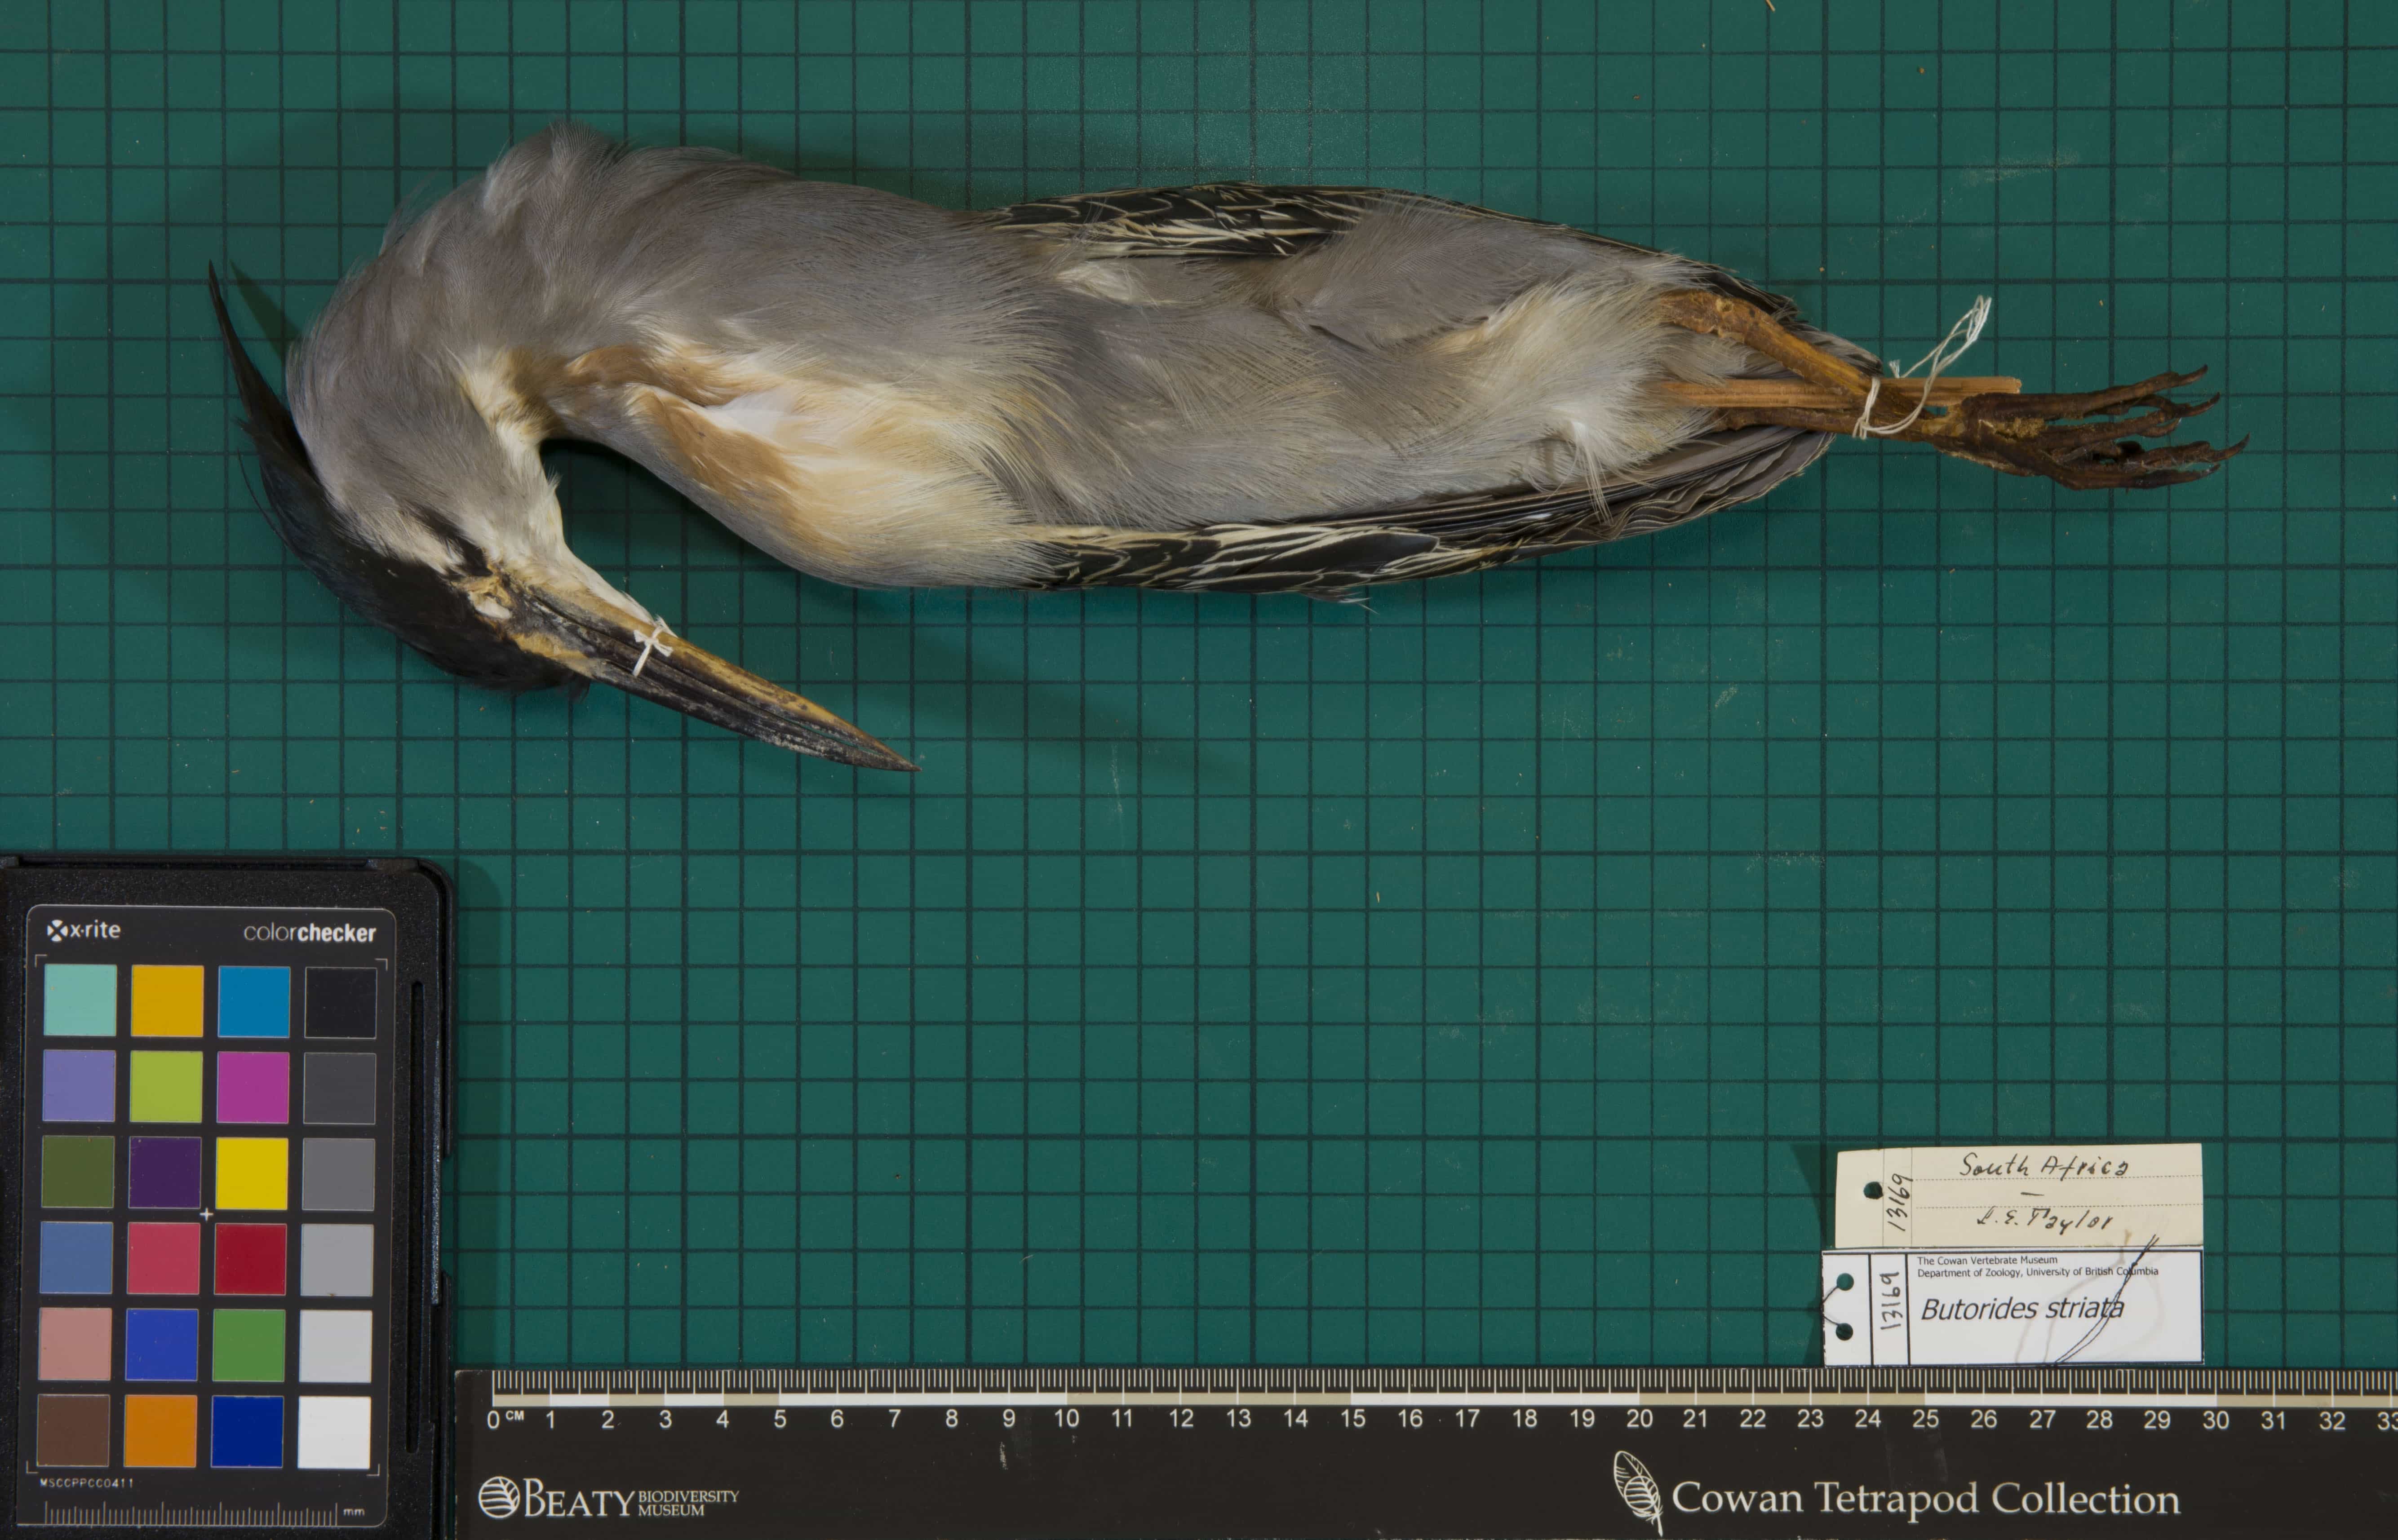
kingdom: Animalia
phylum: Chordata
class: Aves
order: Pelecaniformes
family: Ardeidae
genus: Butorides
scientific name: Butorides striata
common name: Striated Heron
